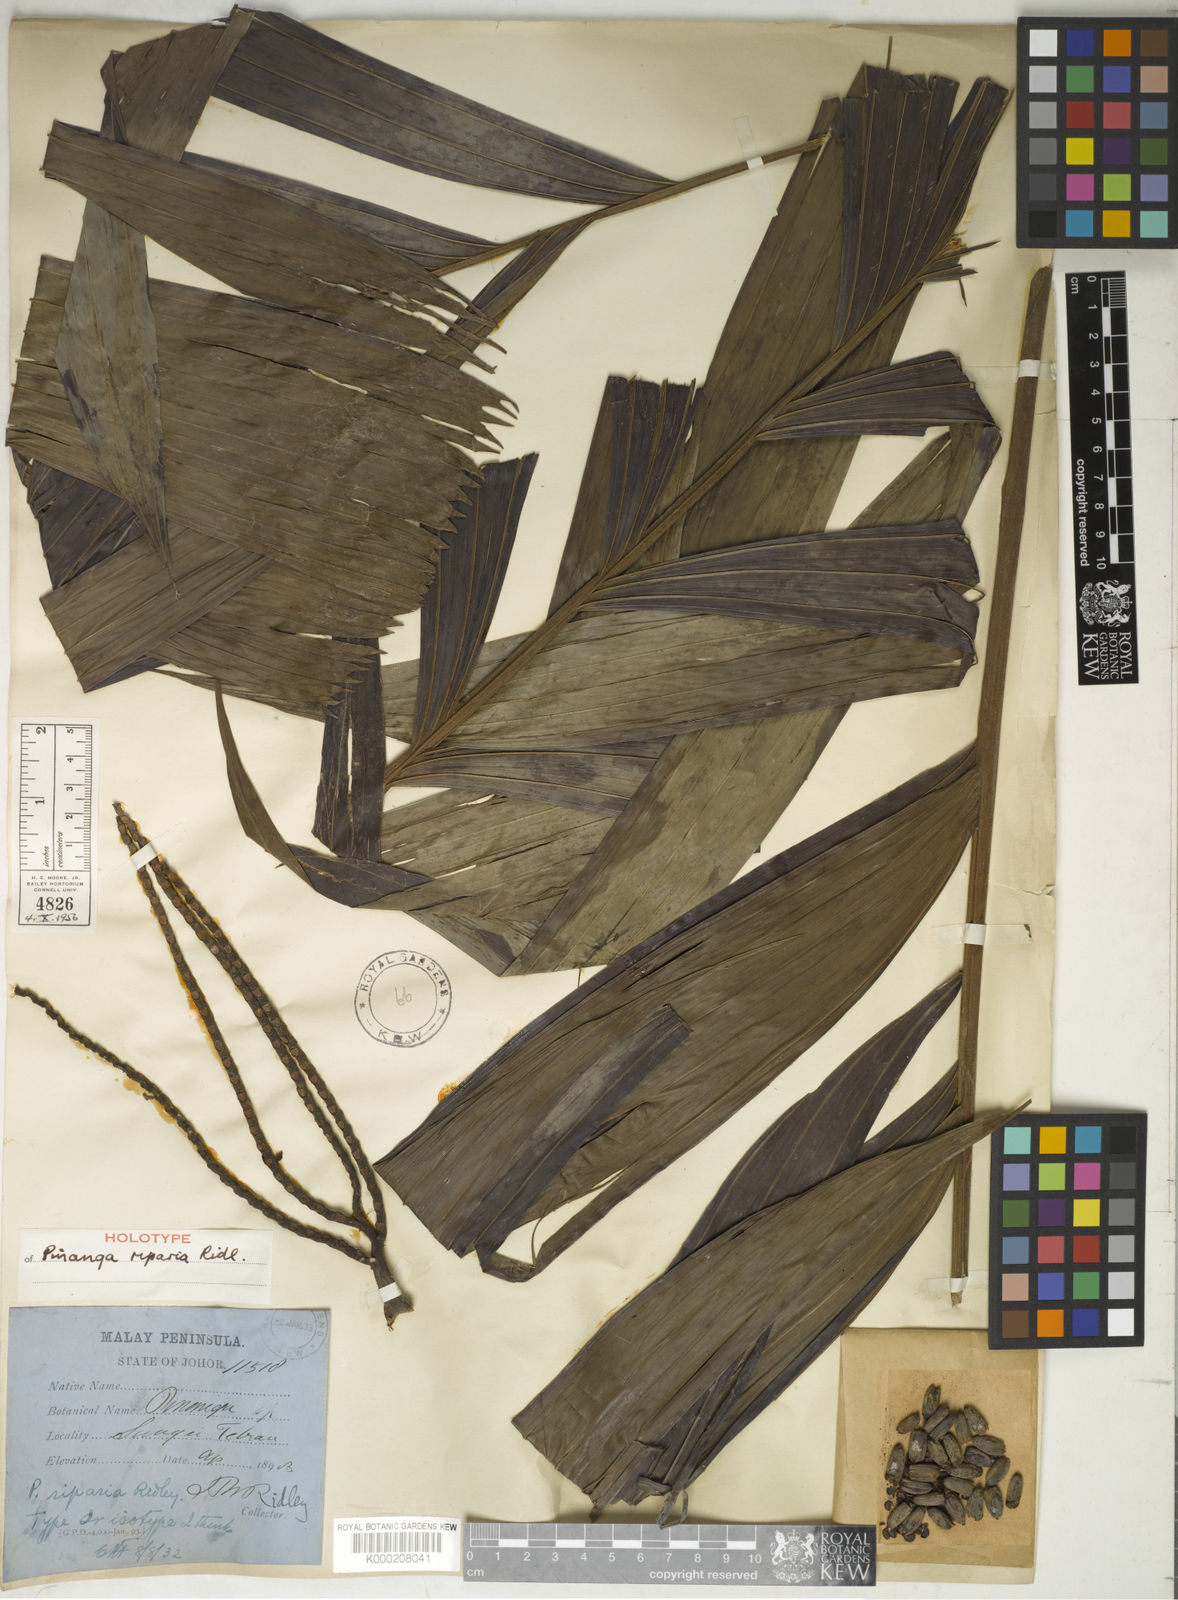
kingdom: Plantae
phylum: Tracheophyta
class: Liliopsida
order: Arecales
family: Arecaceae
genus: Pinanga
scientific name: Pinanga riparia
